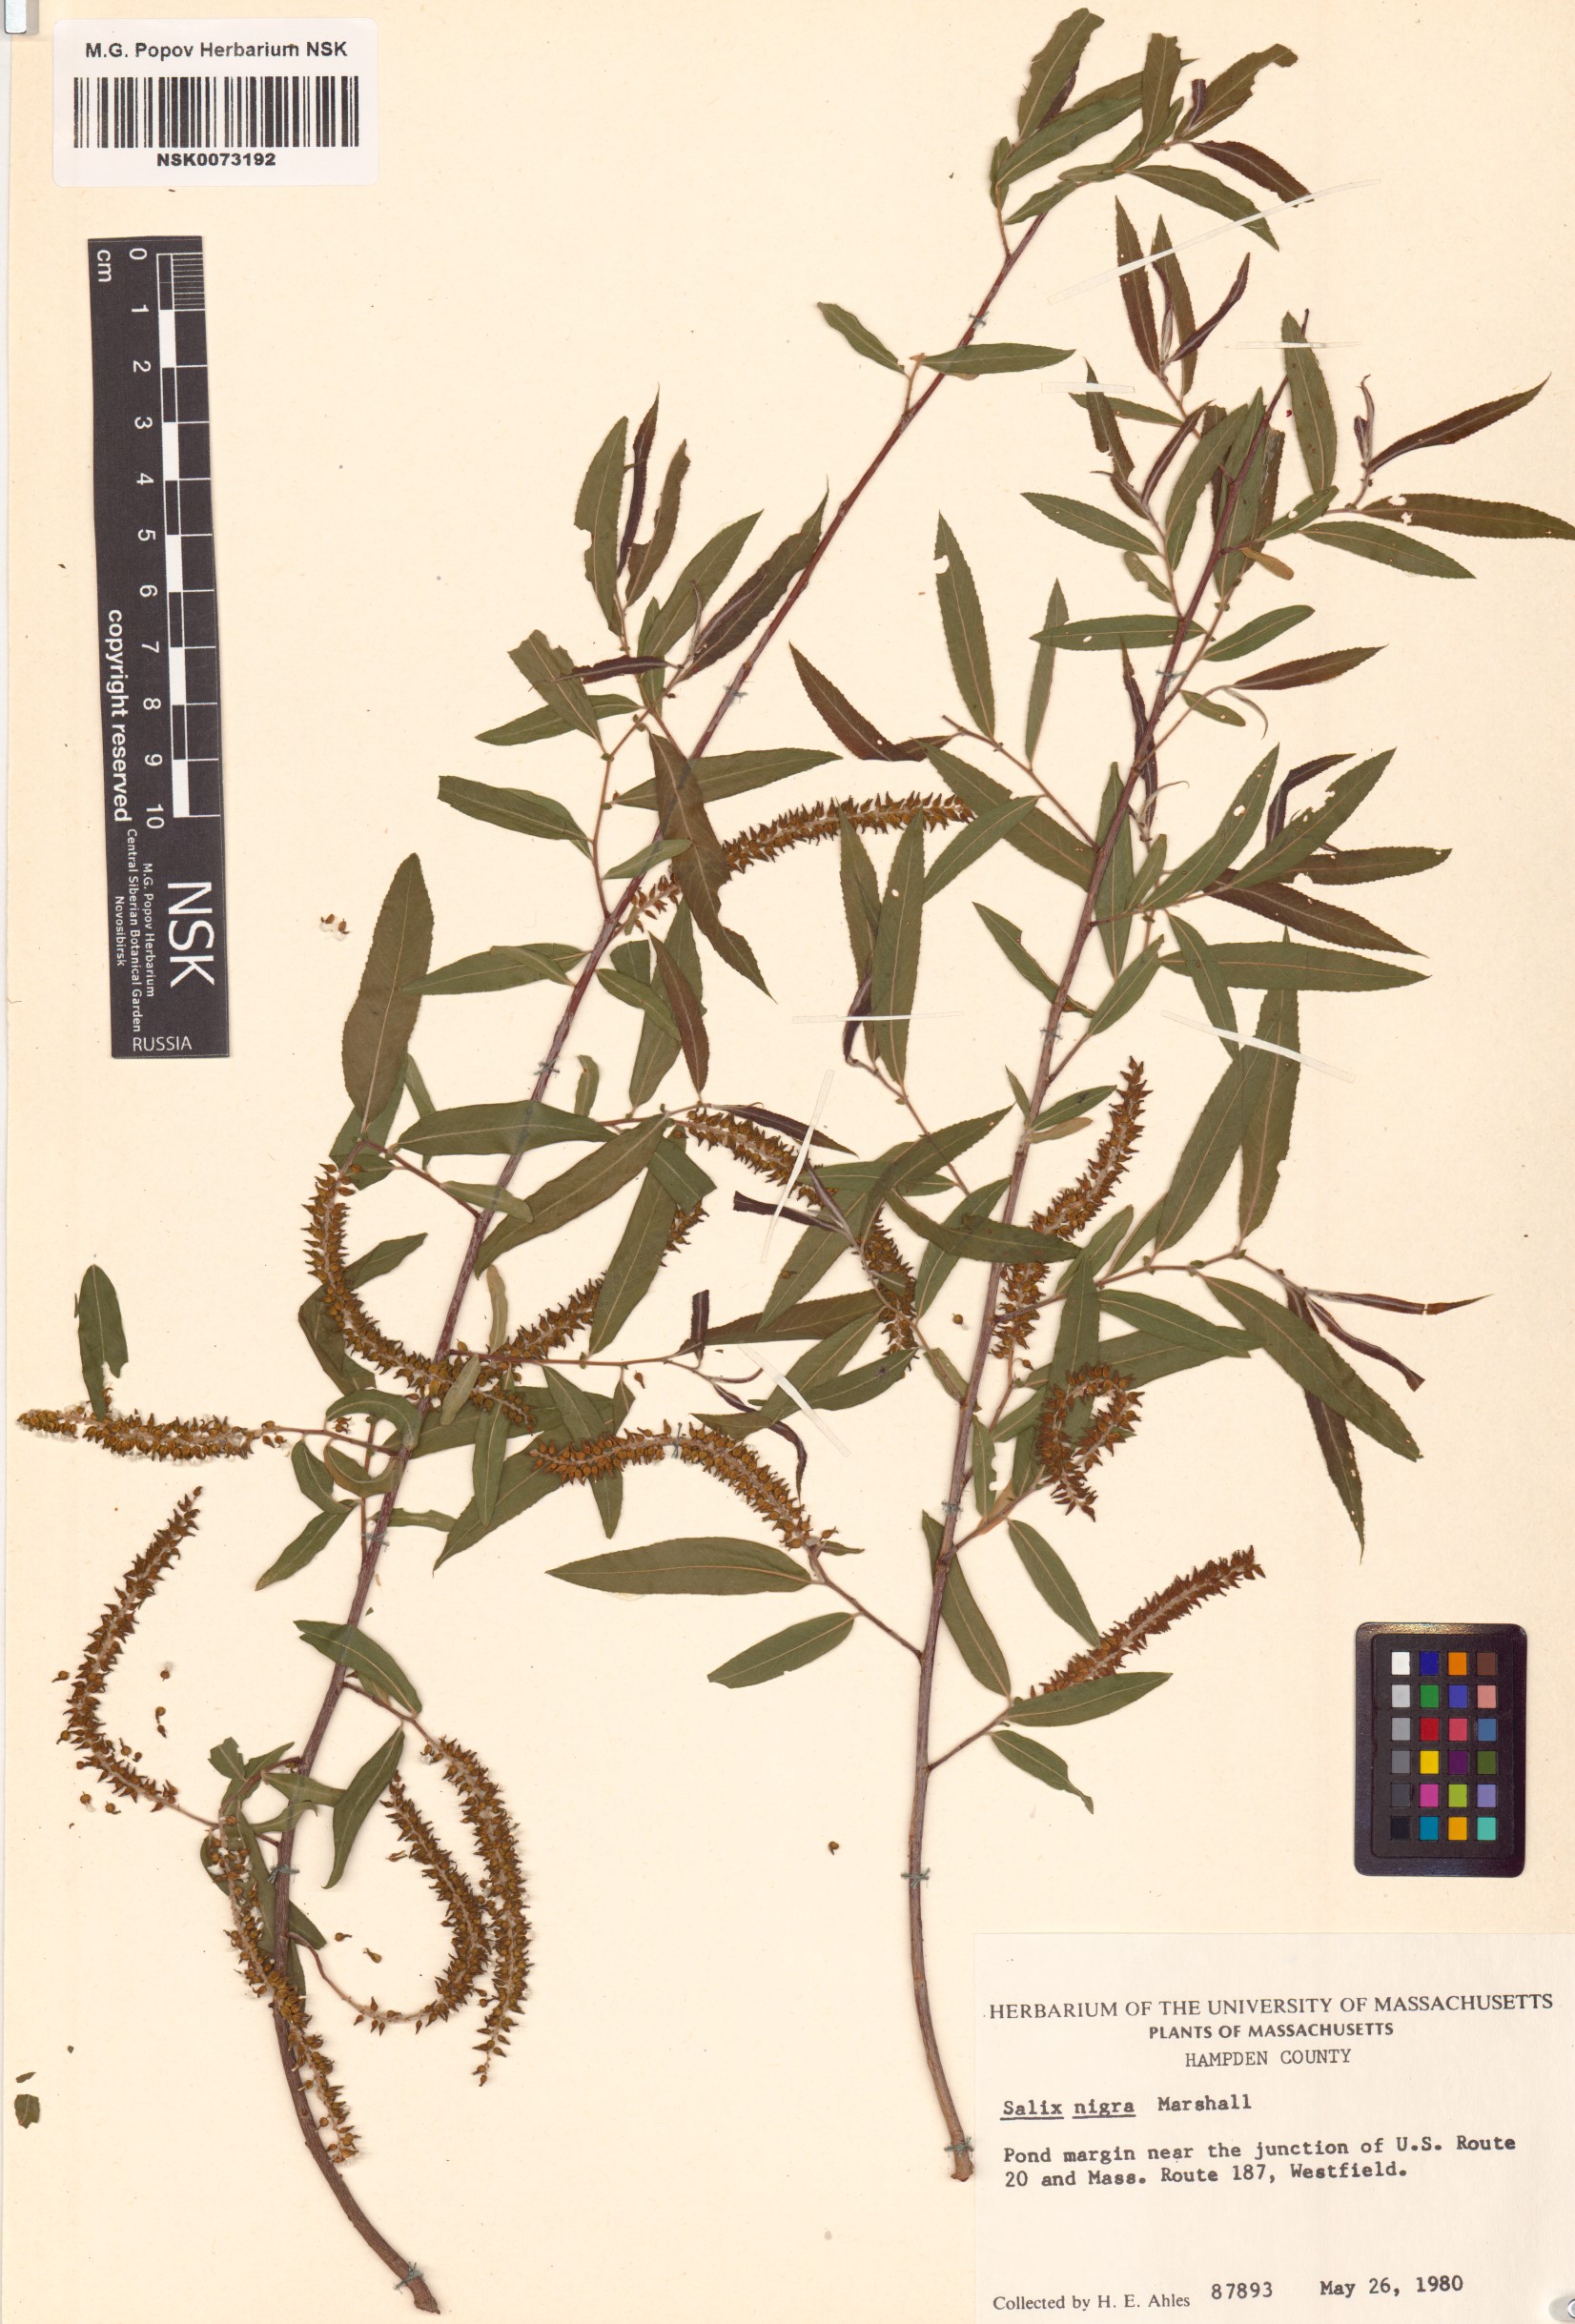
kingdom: Plantae
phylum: Tracheophyta
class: Magnoliopsida
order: Malpighiales
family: Salicaceae
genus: Salix
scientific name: Salix nigra
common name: Black willow
